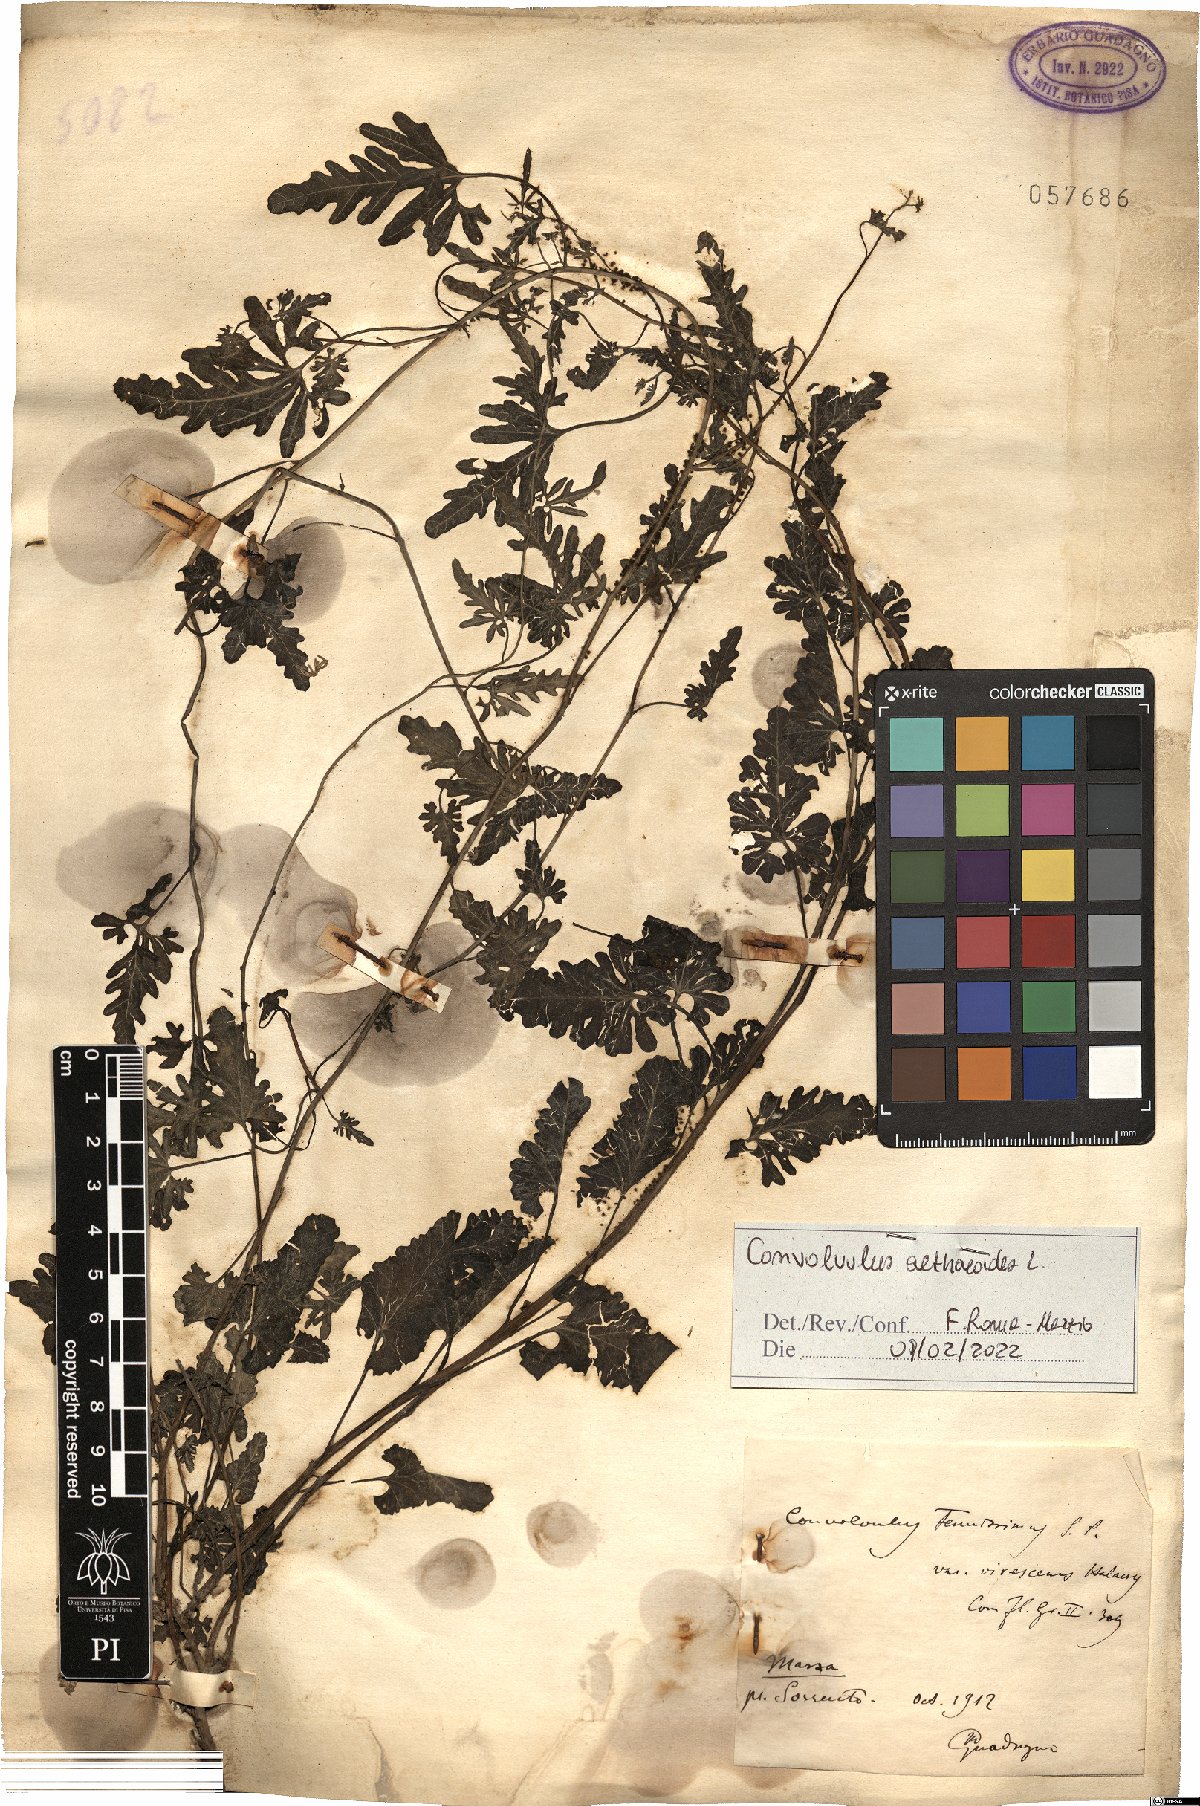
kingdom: Plantae
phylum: Tracheophyta
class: Magnoliopsida
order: Solanales
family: Convolvulaceae
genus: Convolvulus
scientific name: Convolvulus althaeoides
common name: Mallow bindweed
